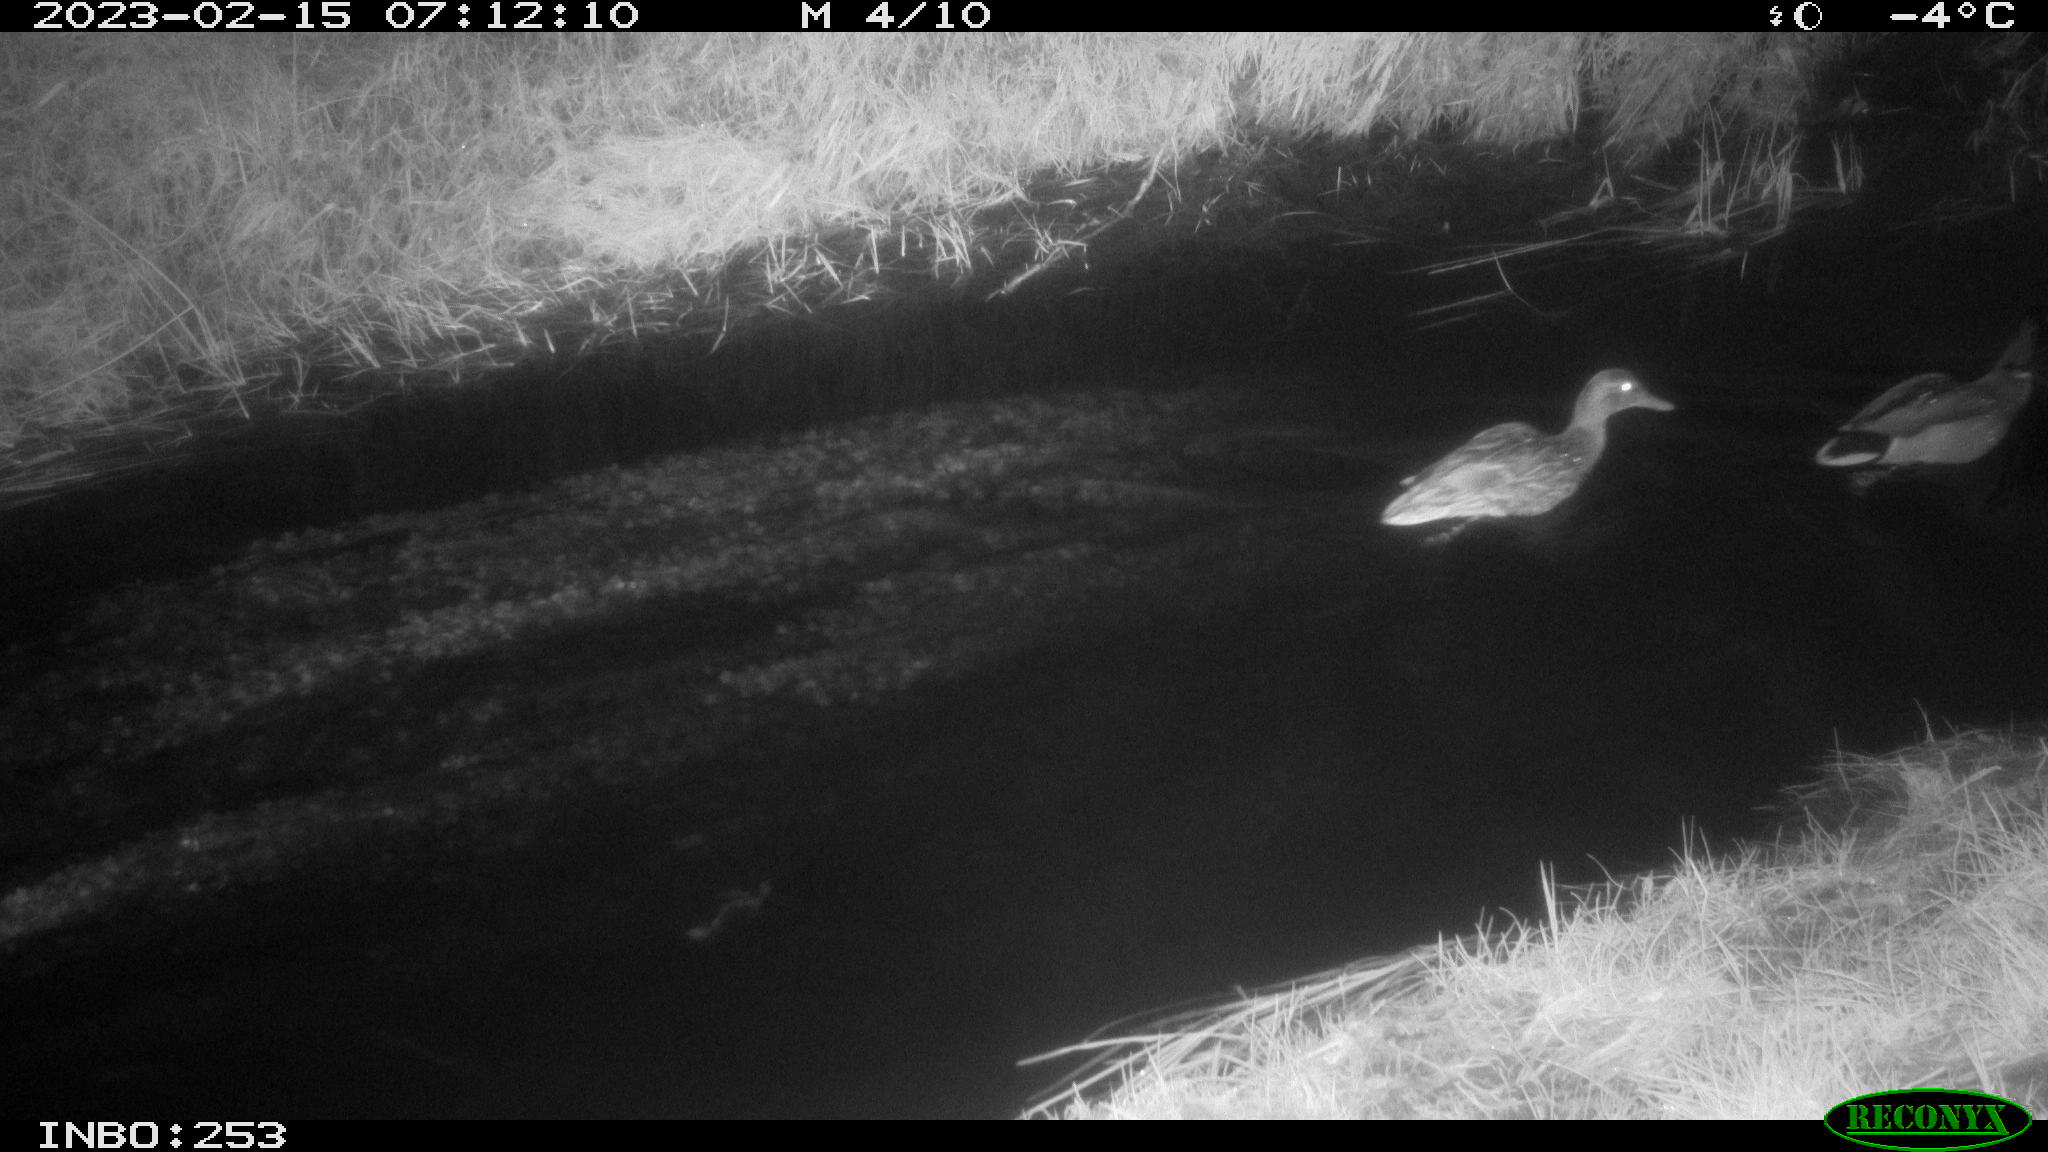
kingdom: Animalia
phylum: Chordata
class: Aves
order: Anseriformes
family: Anatidae
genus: Anas
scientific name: Anas
